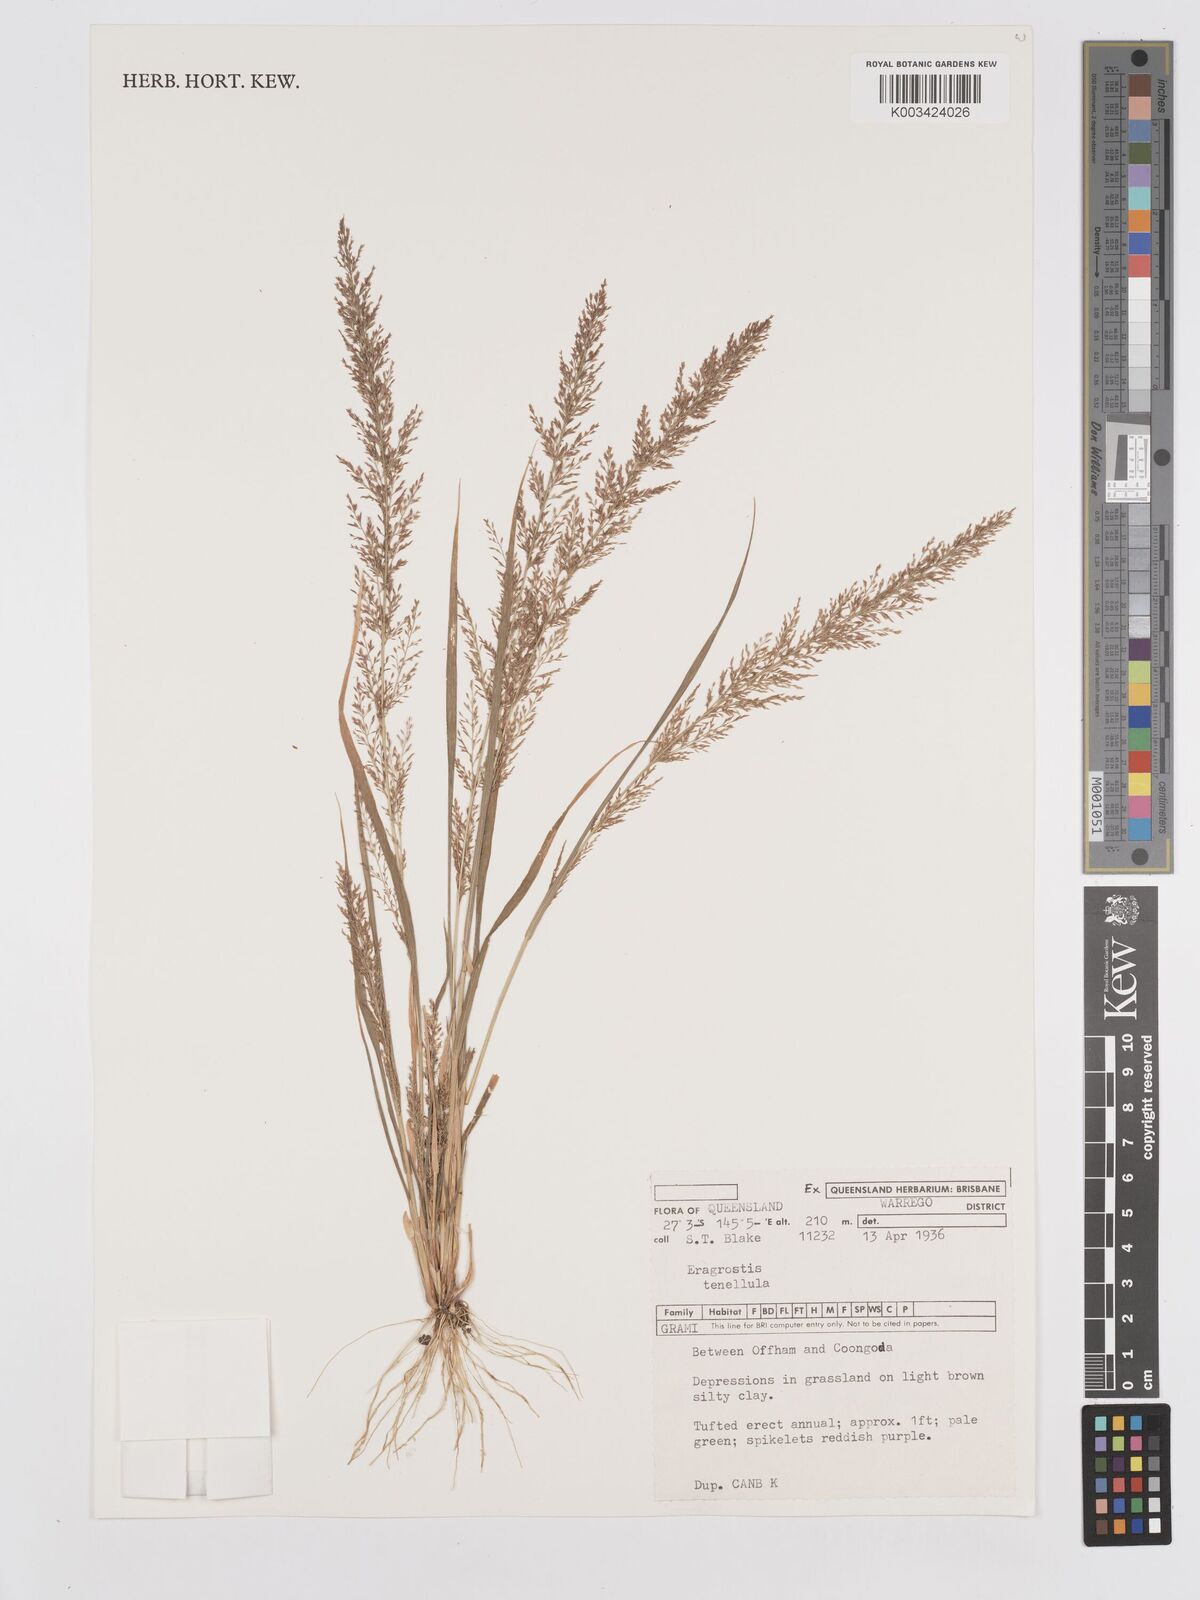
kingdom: Plantae
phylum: Tracheophyta
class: Liliopsida
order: Poales
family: Poaceae
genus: Eragrostis
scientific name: Eragrostis tenellula
